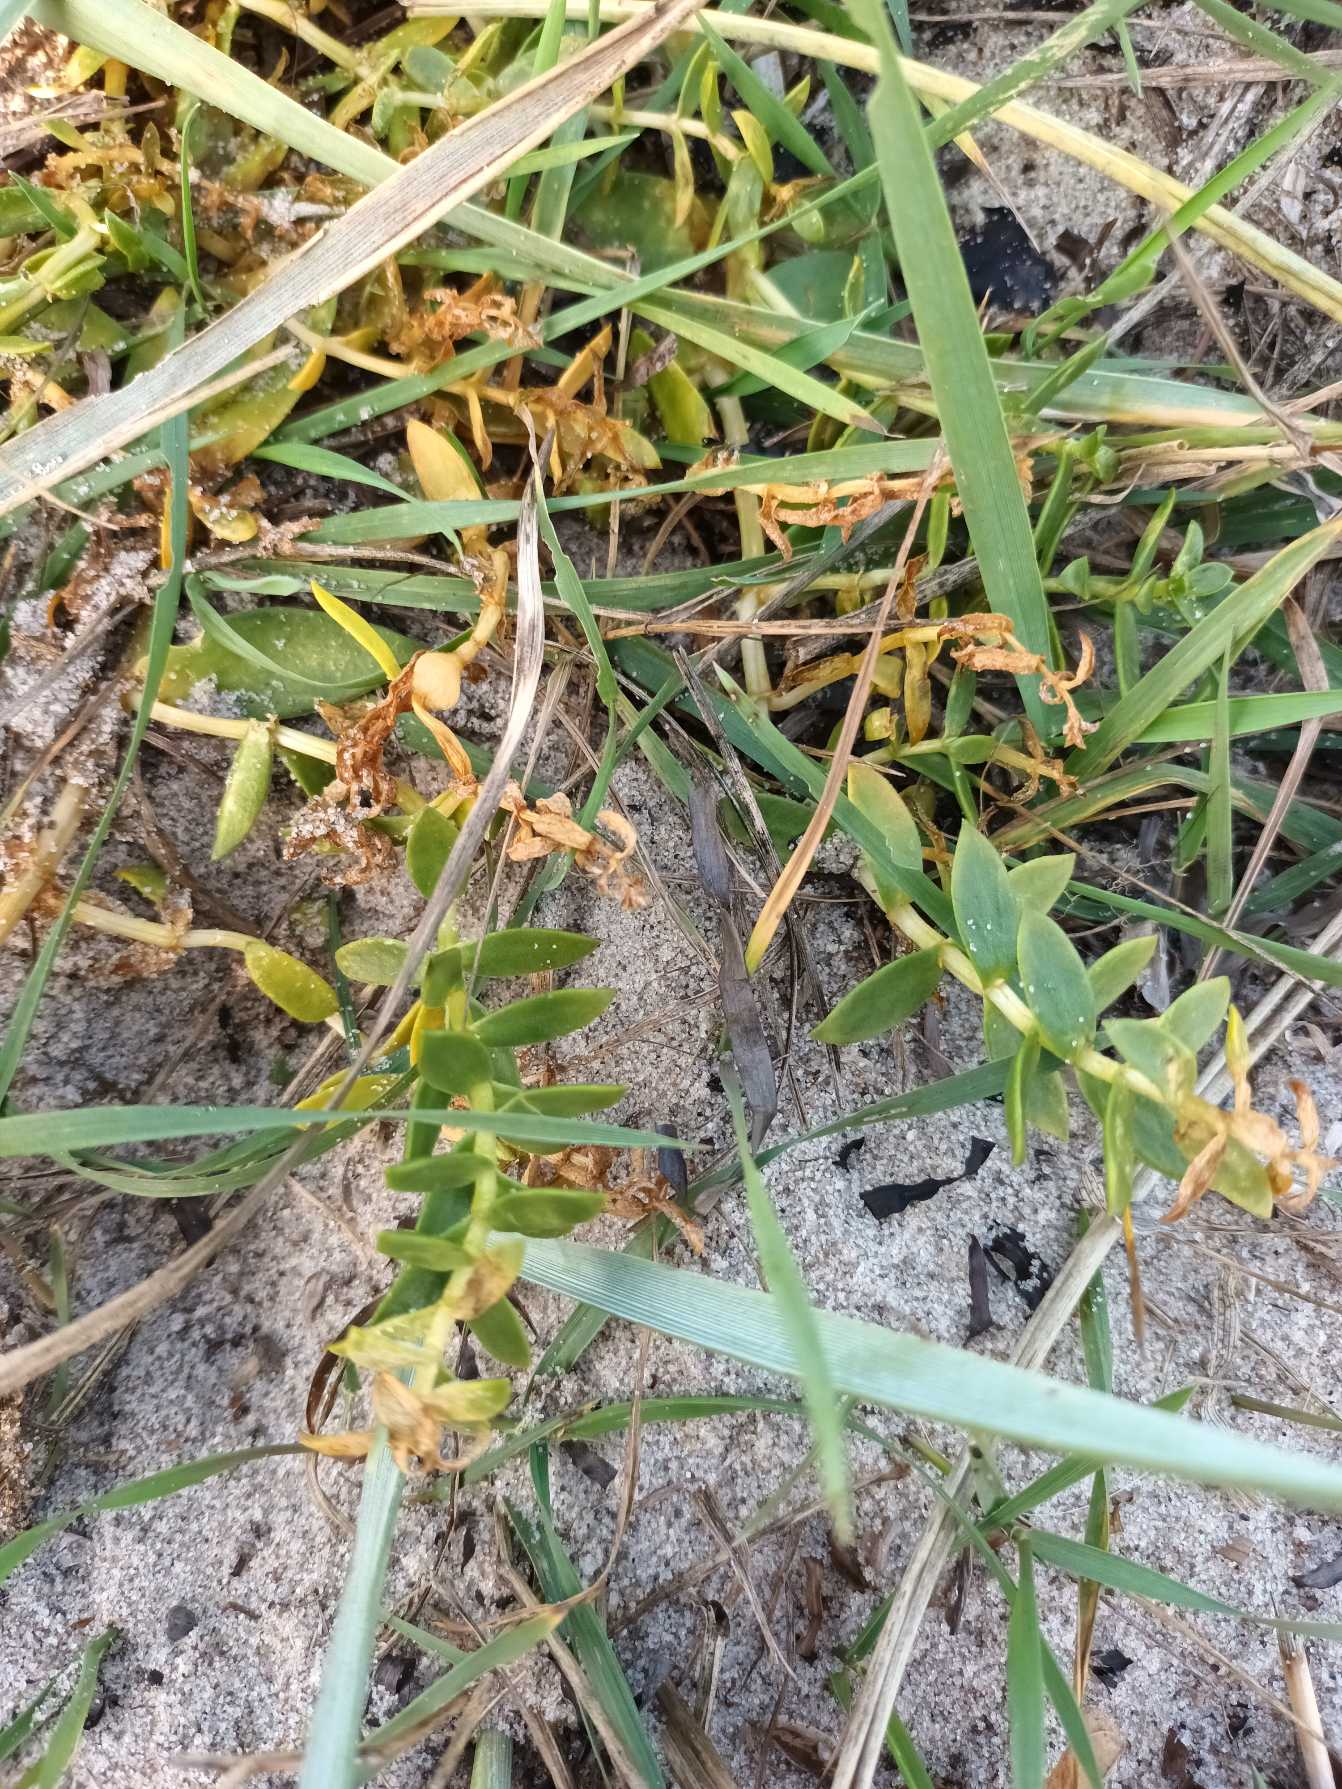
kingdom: Plantae
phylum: Tracheophyta
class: Magnoliopsida
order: Caryophyllales
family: Caryophyllaceae
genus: Honckenya
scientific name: Honckenya peploides
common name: Strandarve
